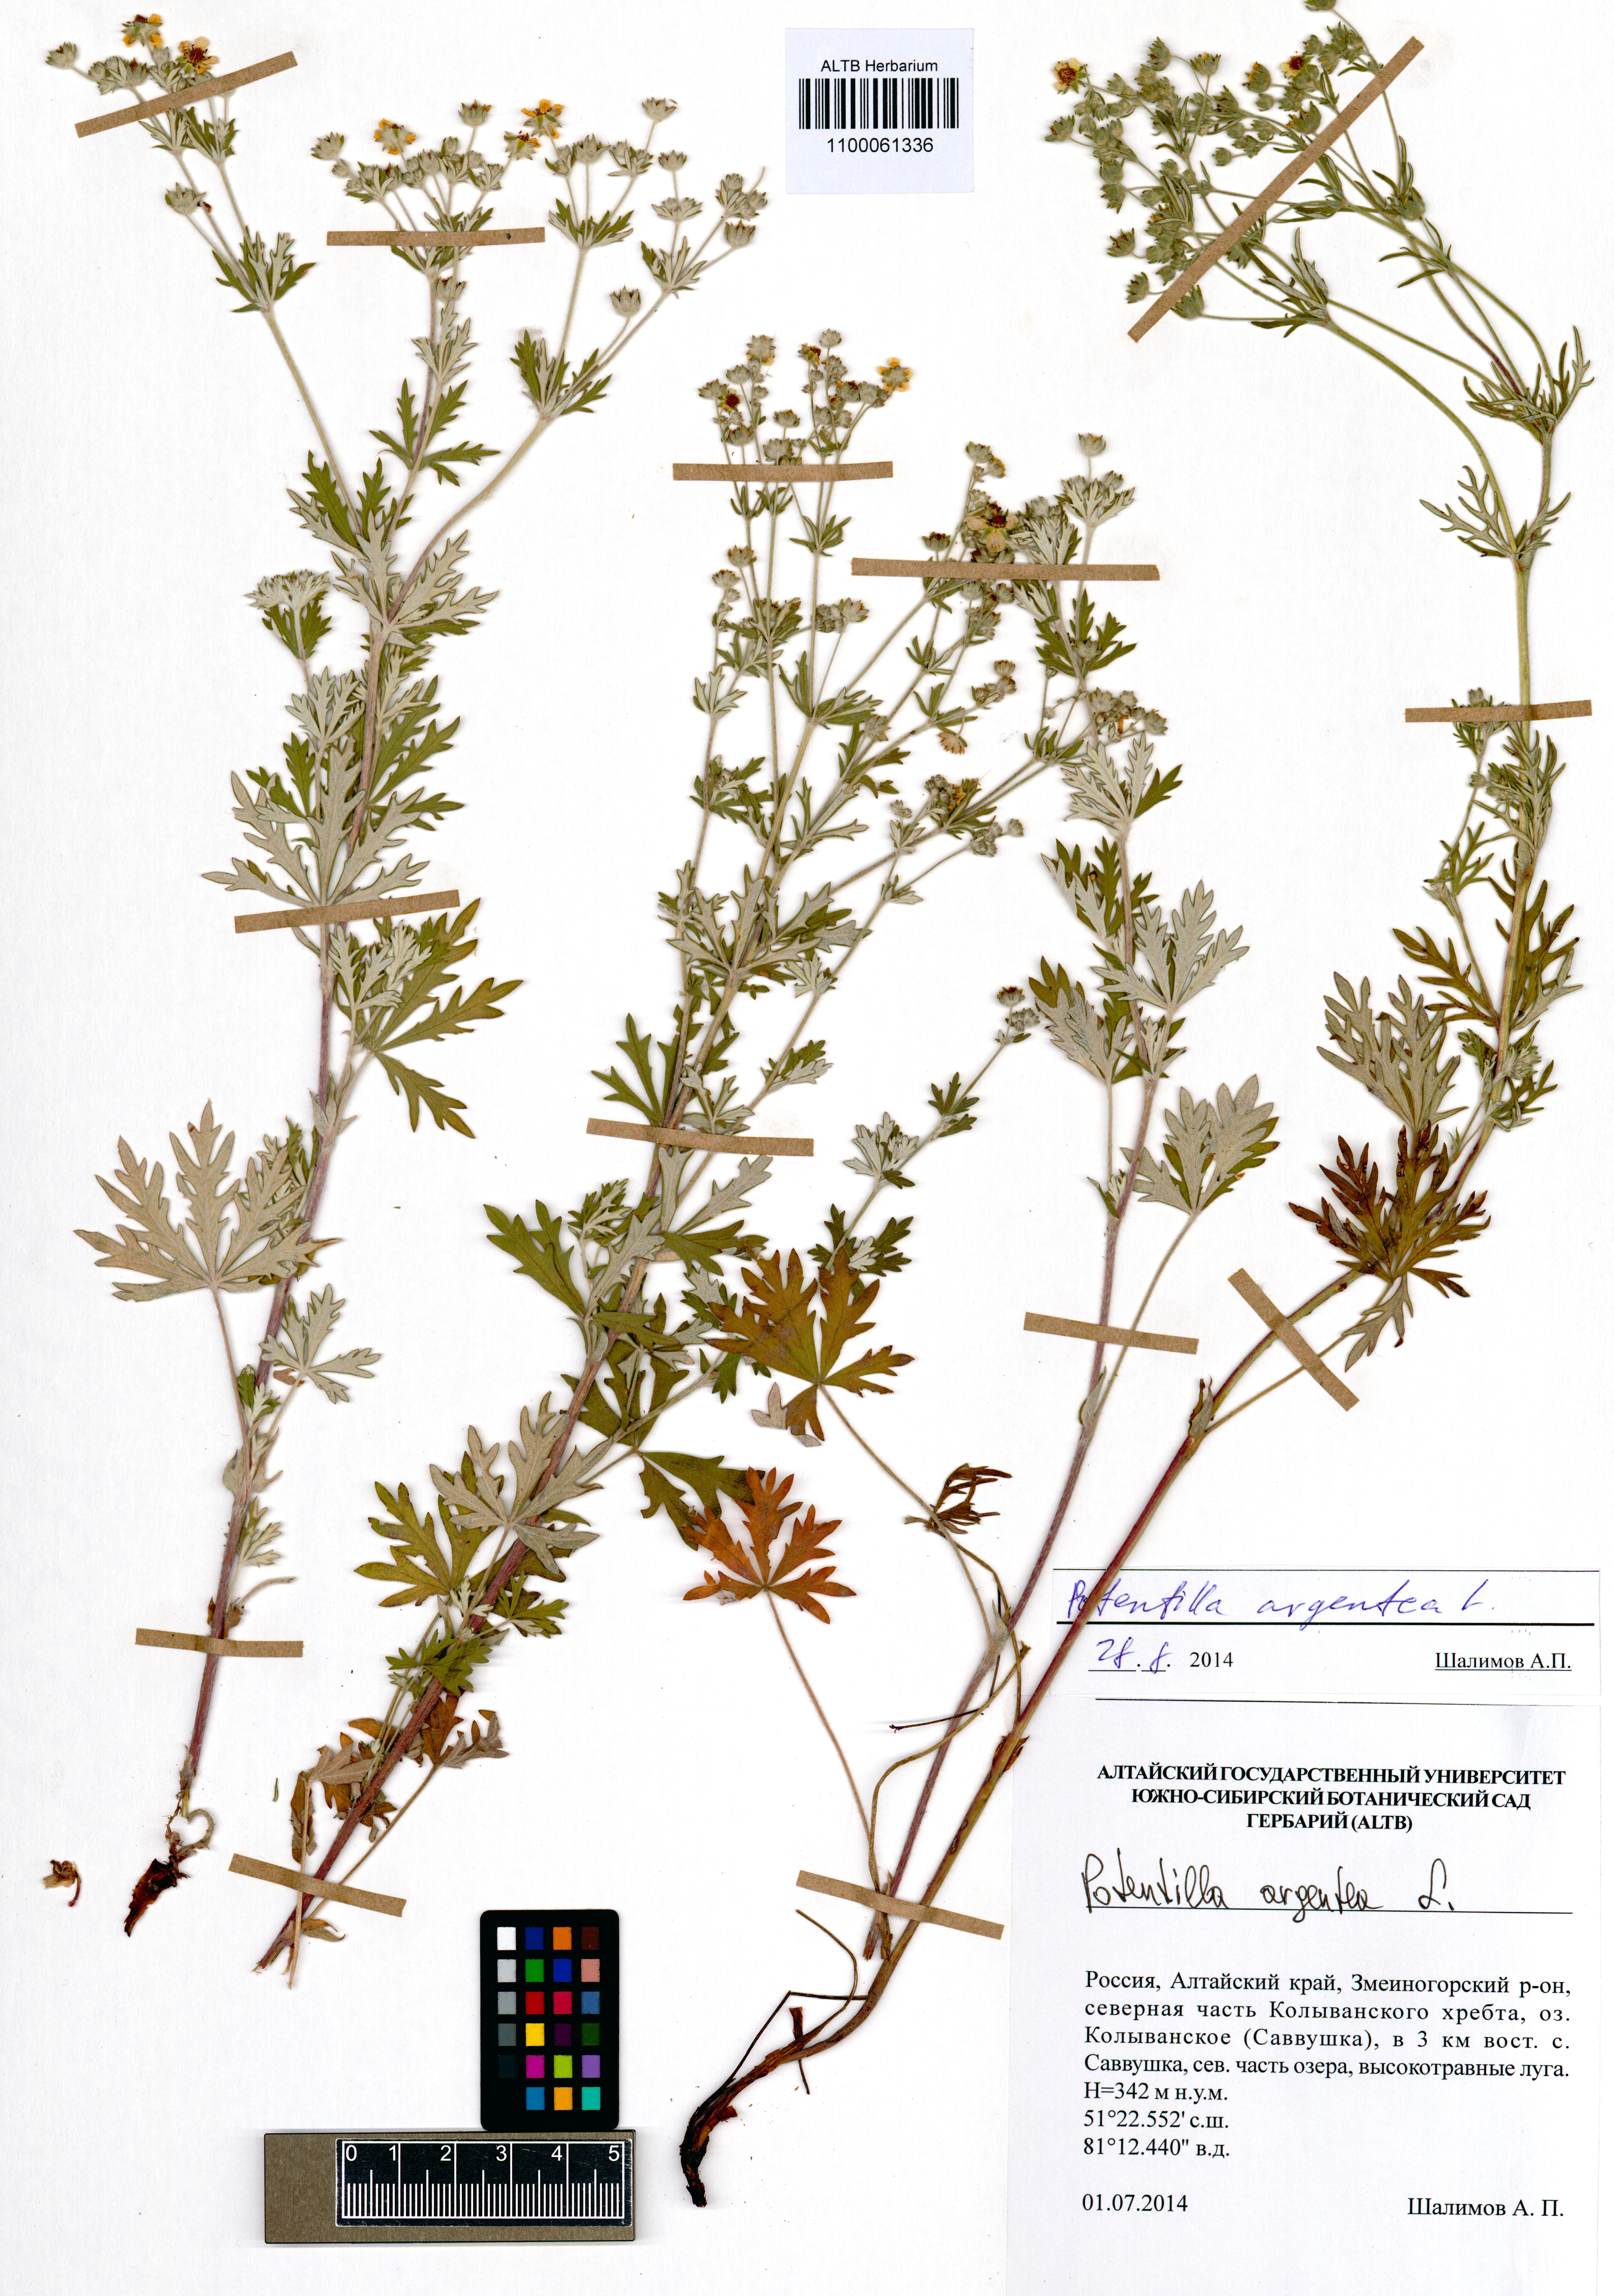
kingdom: Plantae
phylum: Tracheophyta
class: Magnoliopsida
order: Rosales
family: Rosaceae
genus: Potentilla
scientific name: Potentilla argentea
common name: Hoary cinquefoil
